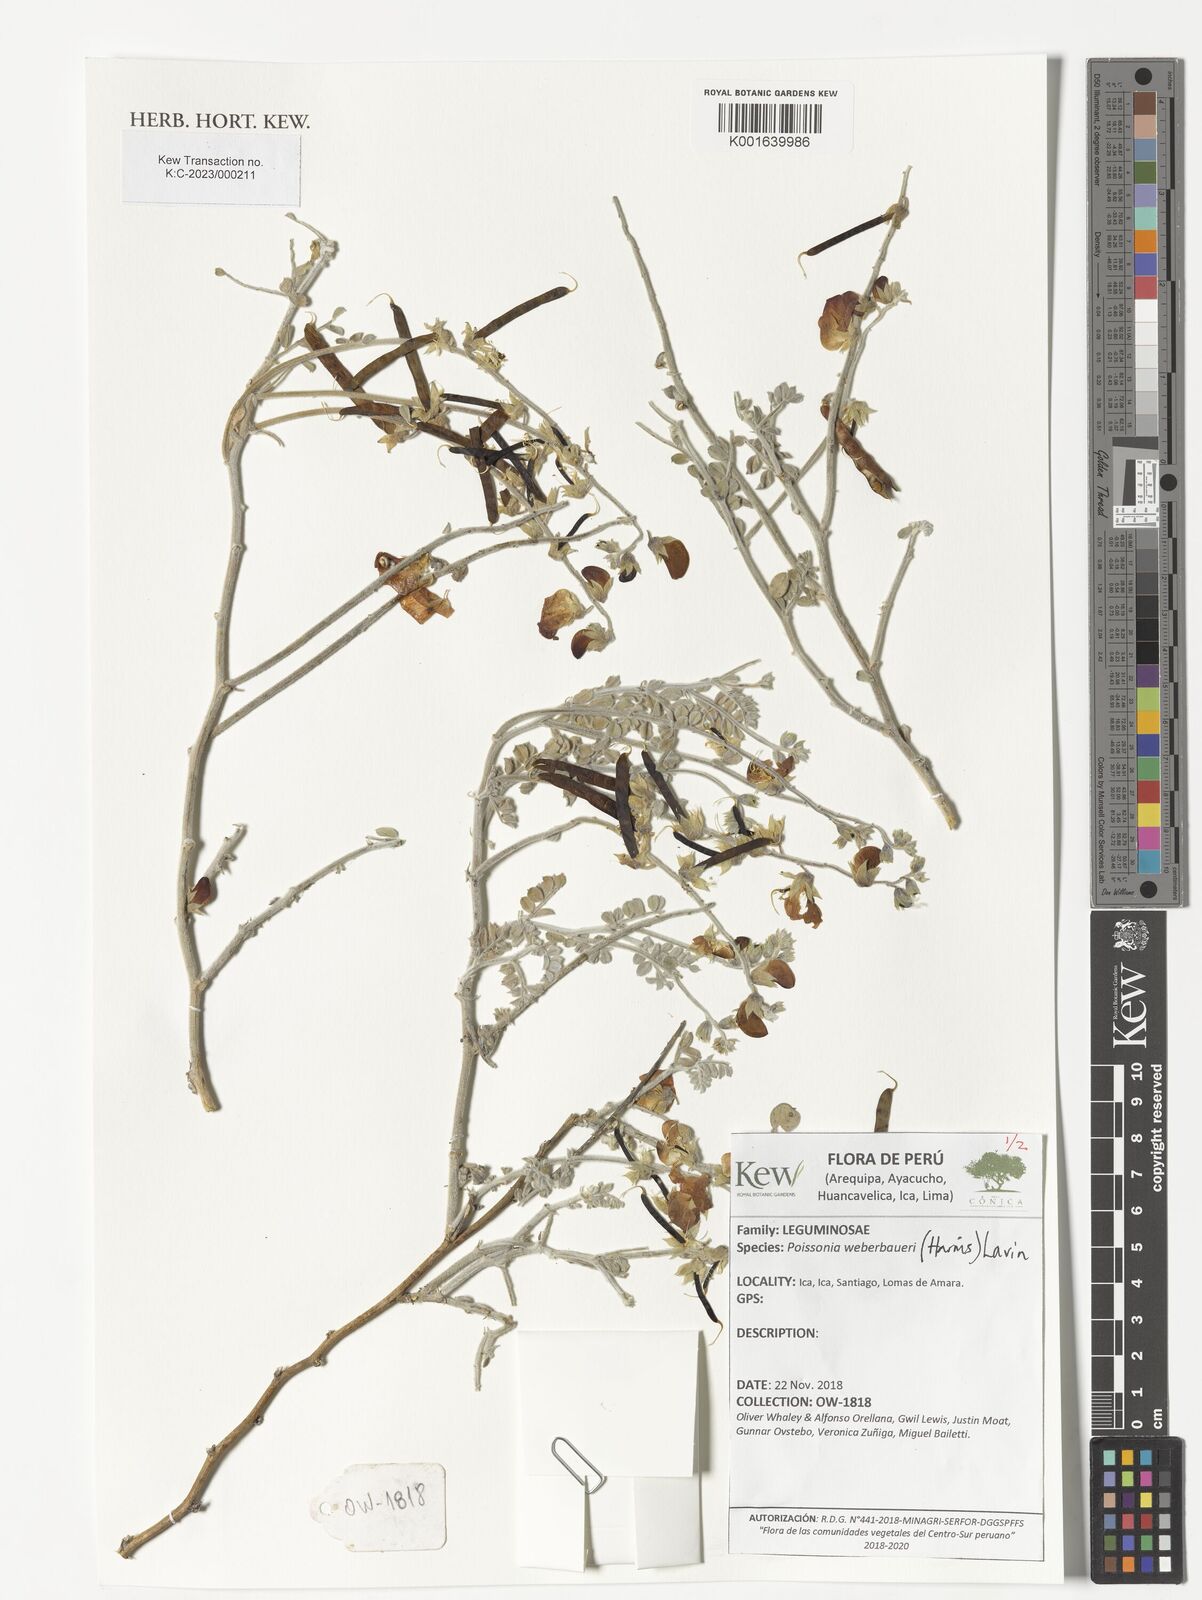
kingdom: Plantae
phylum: Tracheophyta
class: Magnoliopsida
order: Fabales
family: Fabaceae
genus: Poissonia
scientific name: Poissonia weberbaueri
